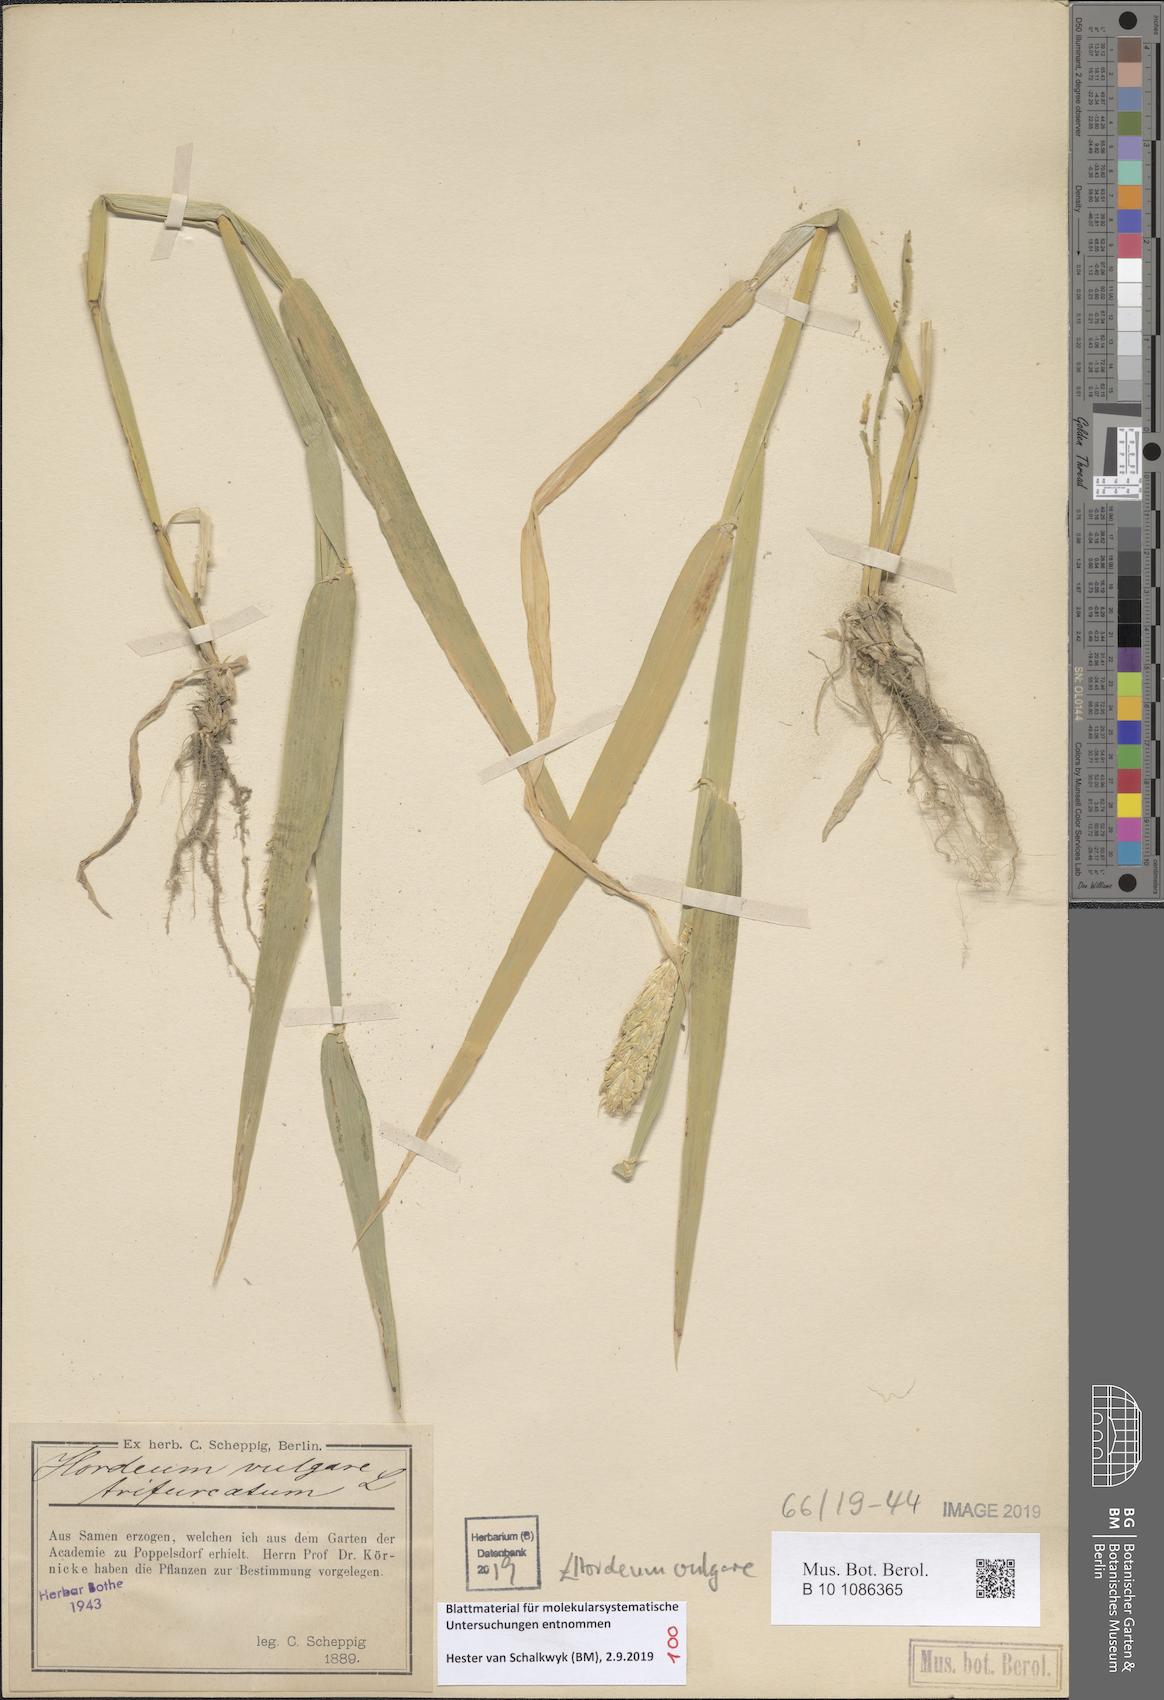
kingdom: Plantae
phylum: Tracheophyta
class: Liliopsida
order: Poales
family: Poaceae
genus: Hordeum
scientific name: Hordeum vulgare
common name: Common barley
